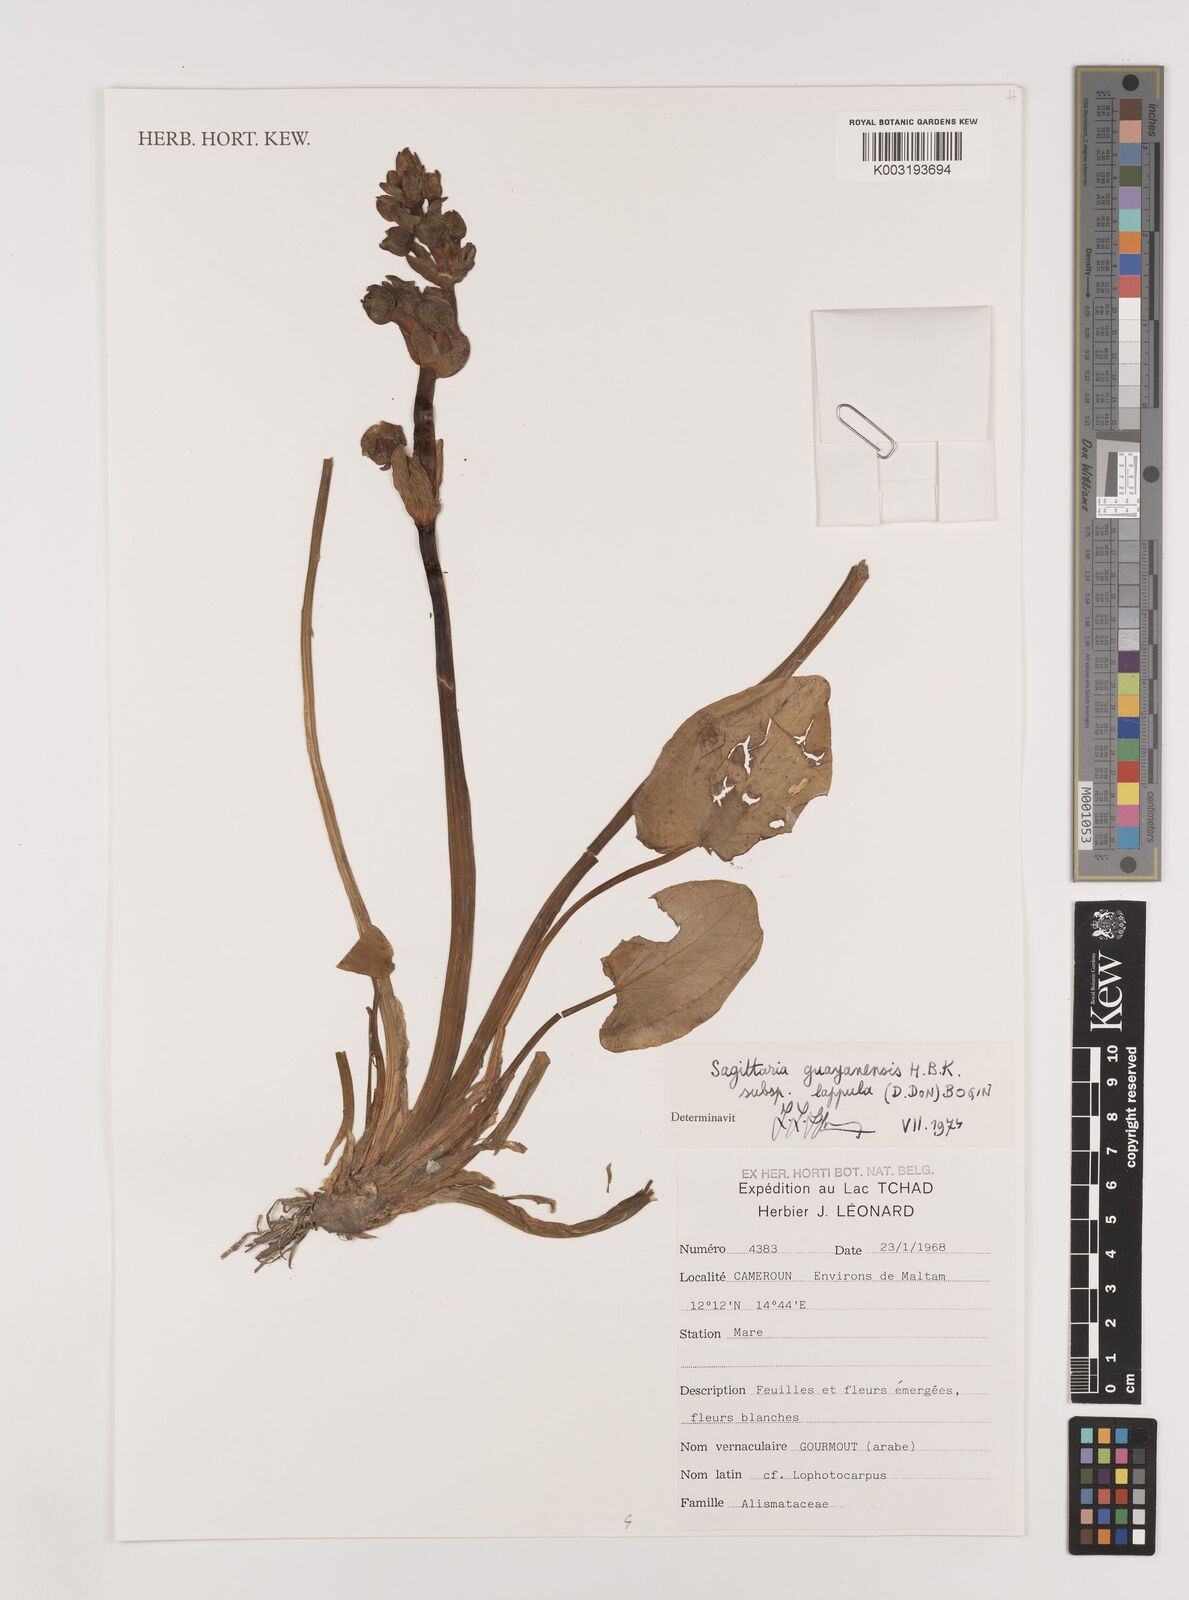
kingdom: Plantae
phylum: Tracheophyta
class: Liliopsida
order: Alismatales
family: Alismataceae
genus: Sagittaria
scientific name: Sagittaria guayanensis
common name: Guyanese arrowhead
